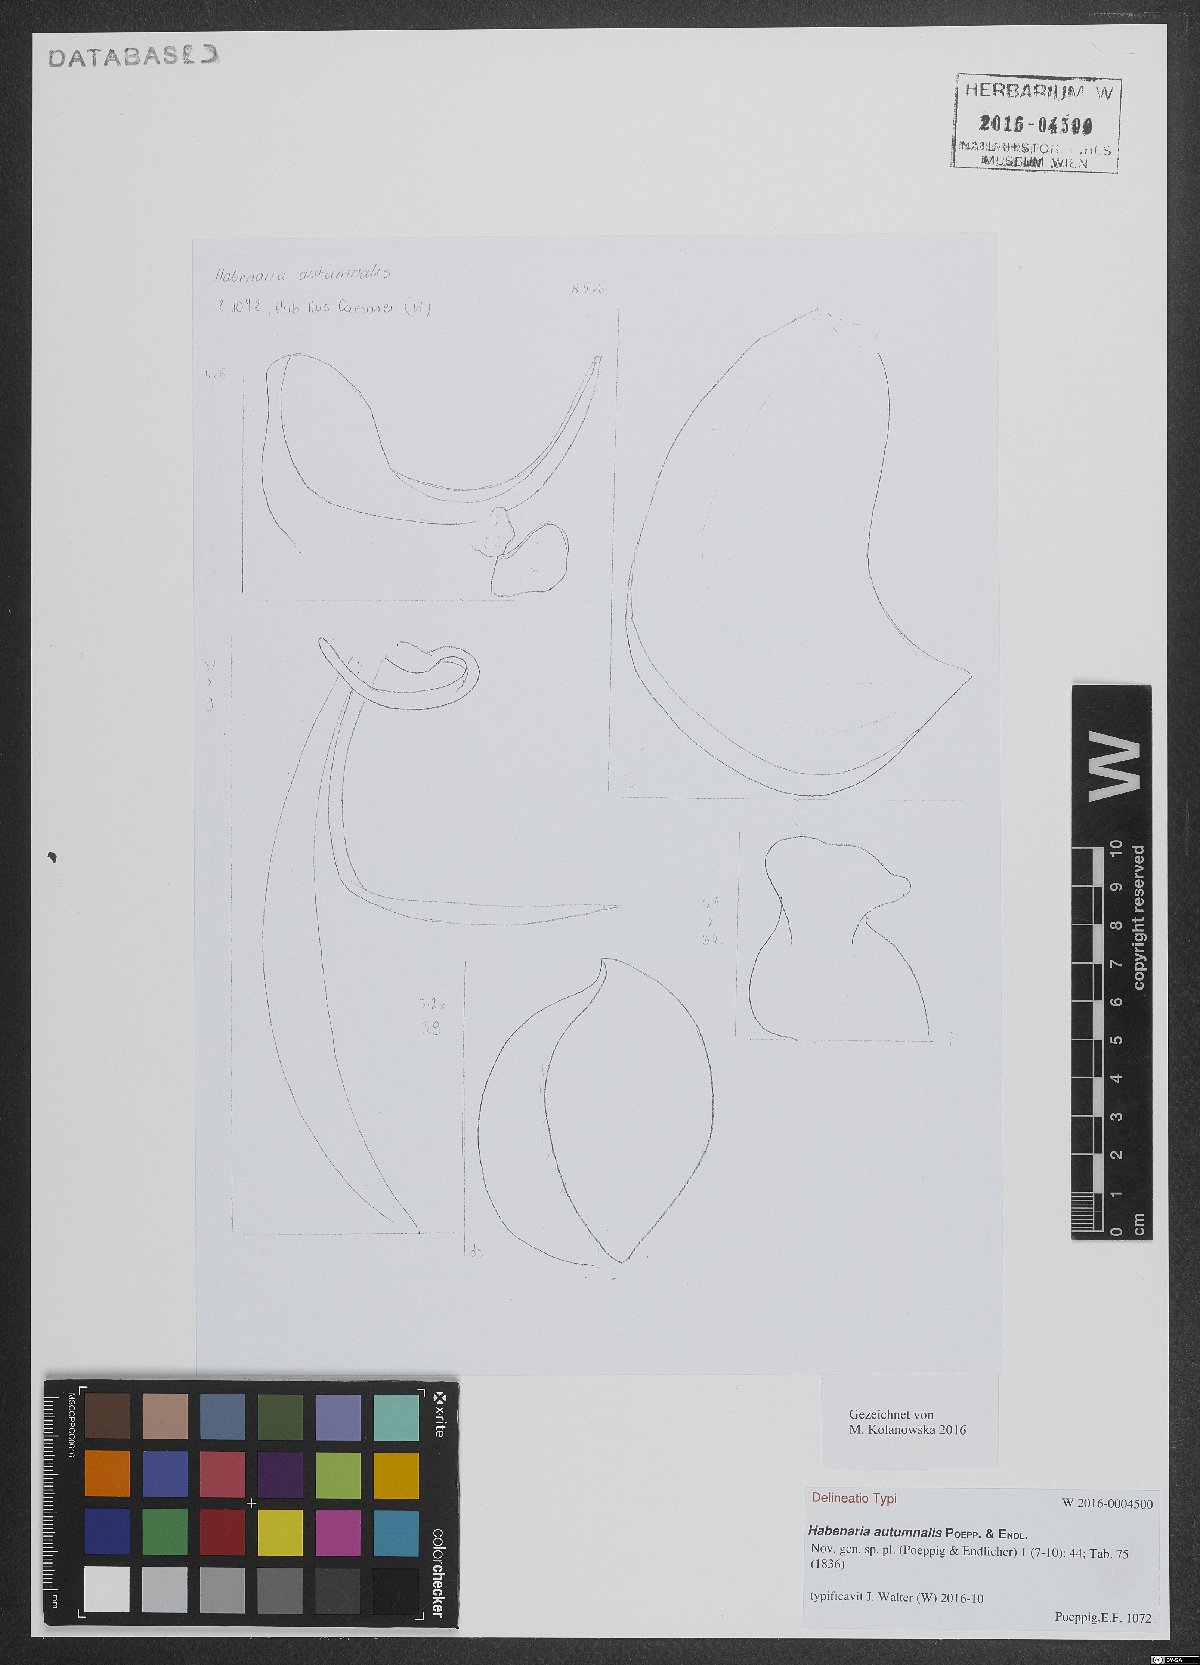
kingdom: Plantae
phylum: Tracheophyta
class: Liliopsida
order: Asparagales
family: Orchidaceae
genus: Habenaria
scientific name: Habenaria floribunda
